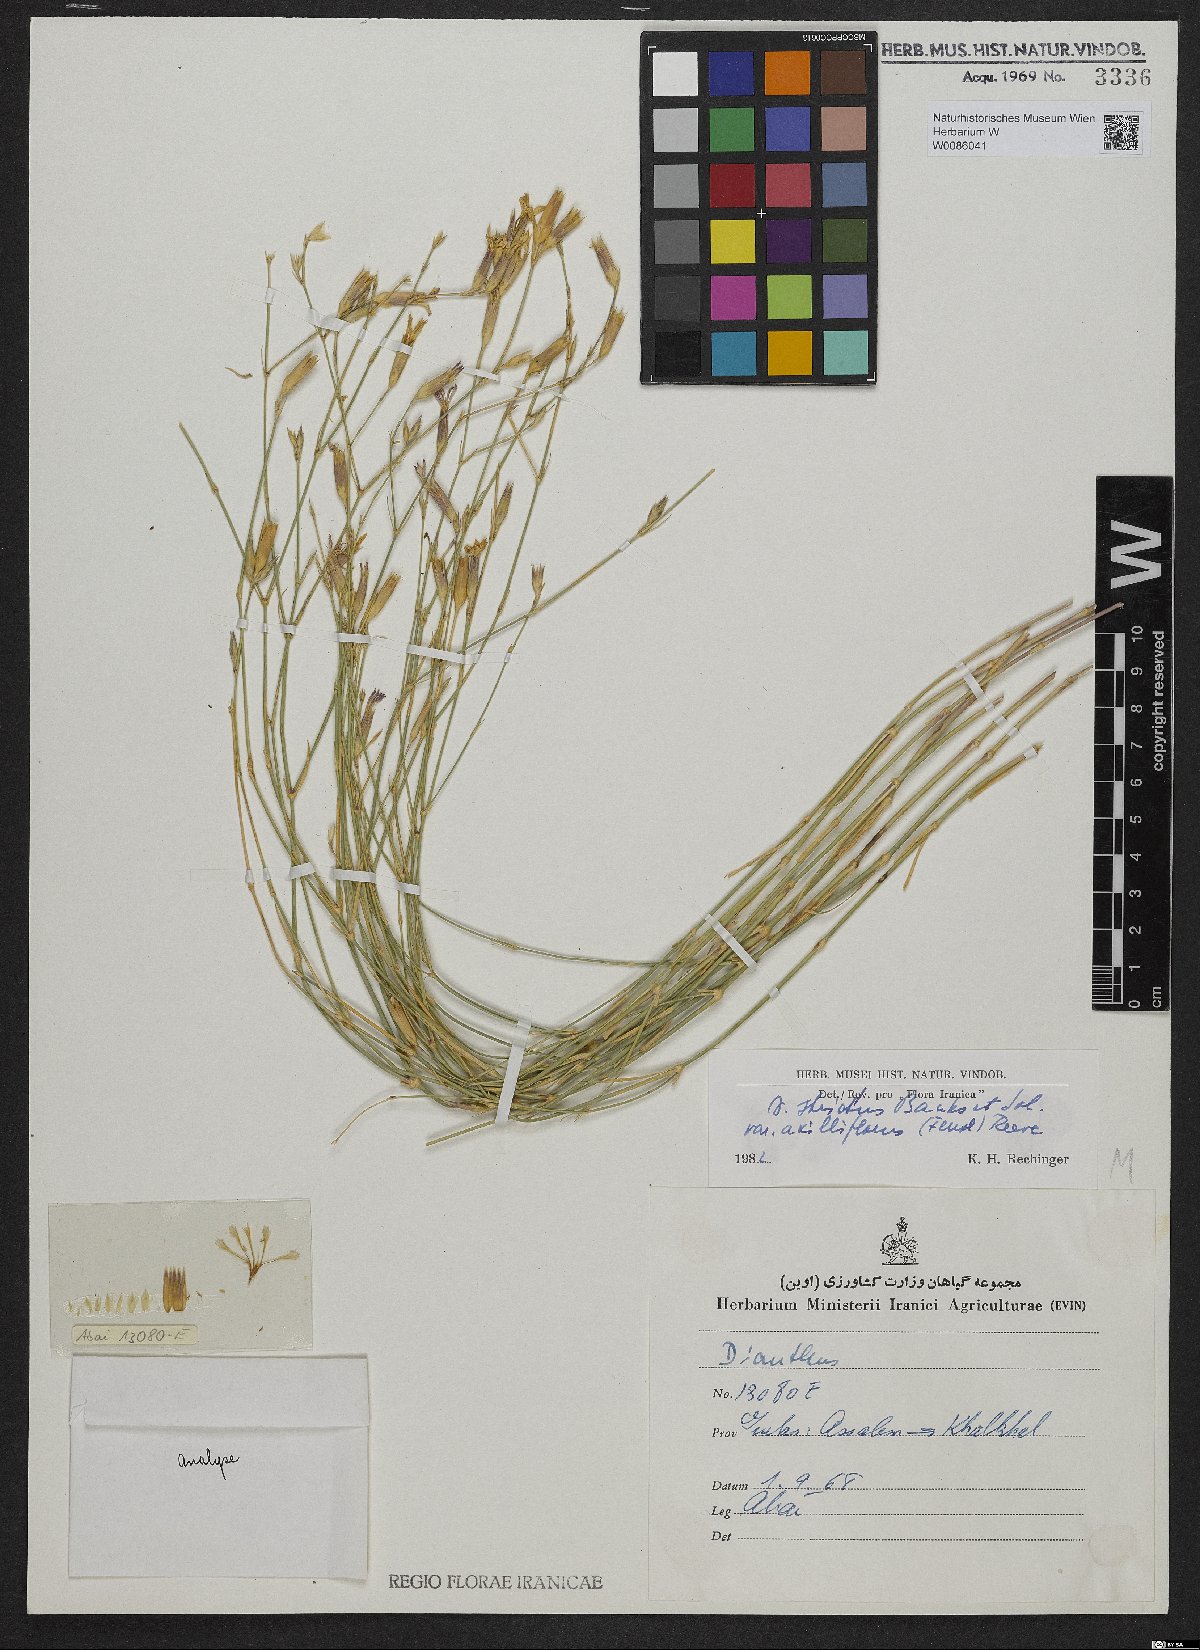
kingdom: Plantae
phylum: Tracheophyta
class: Magnoliopsida
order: Caryophyllales
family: Caryophyllaceae
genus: Dianthus
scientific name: Dianthus strictus
